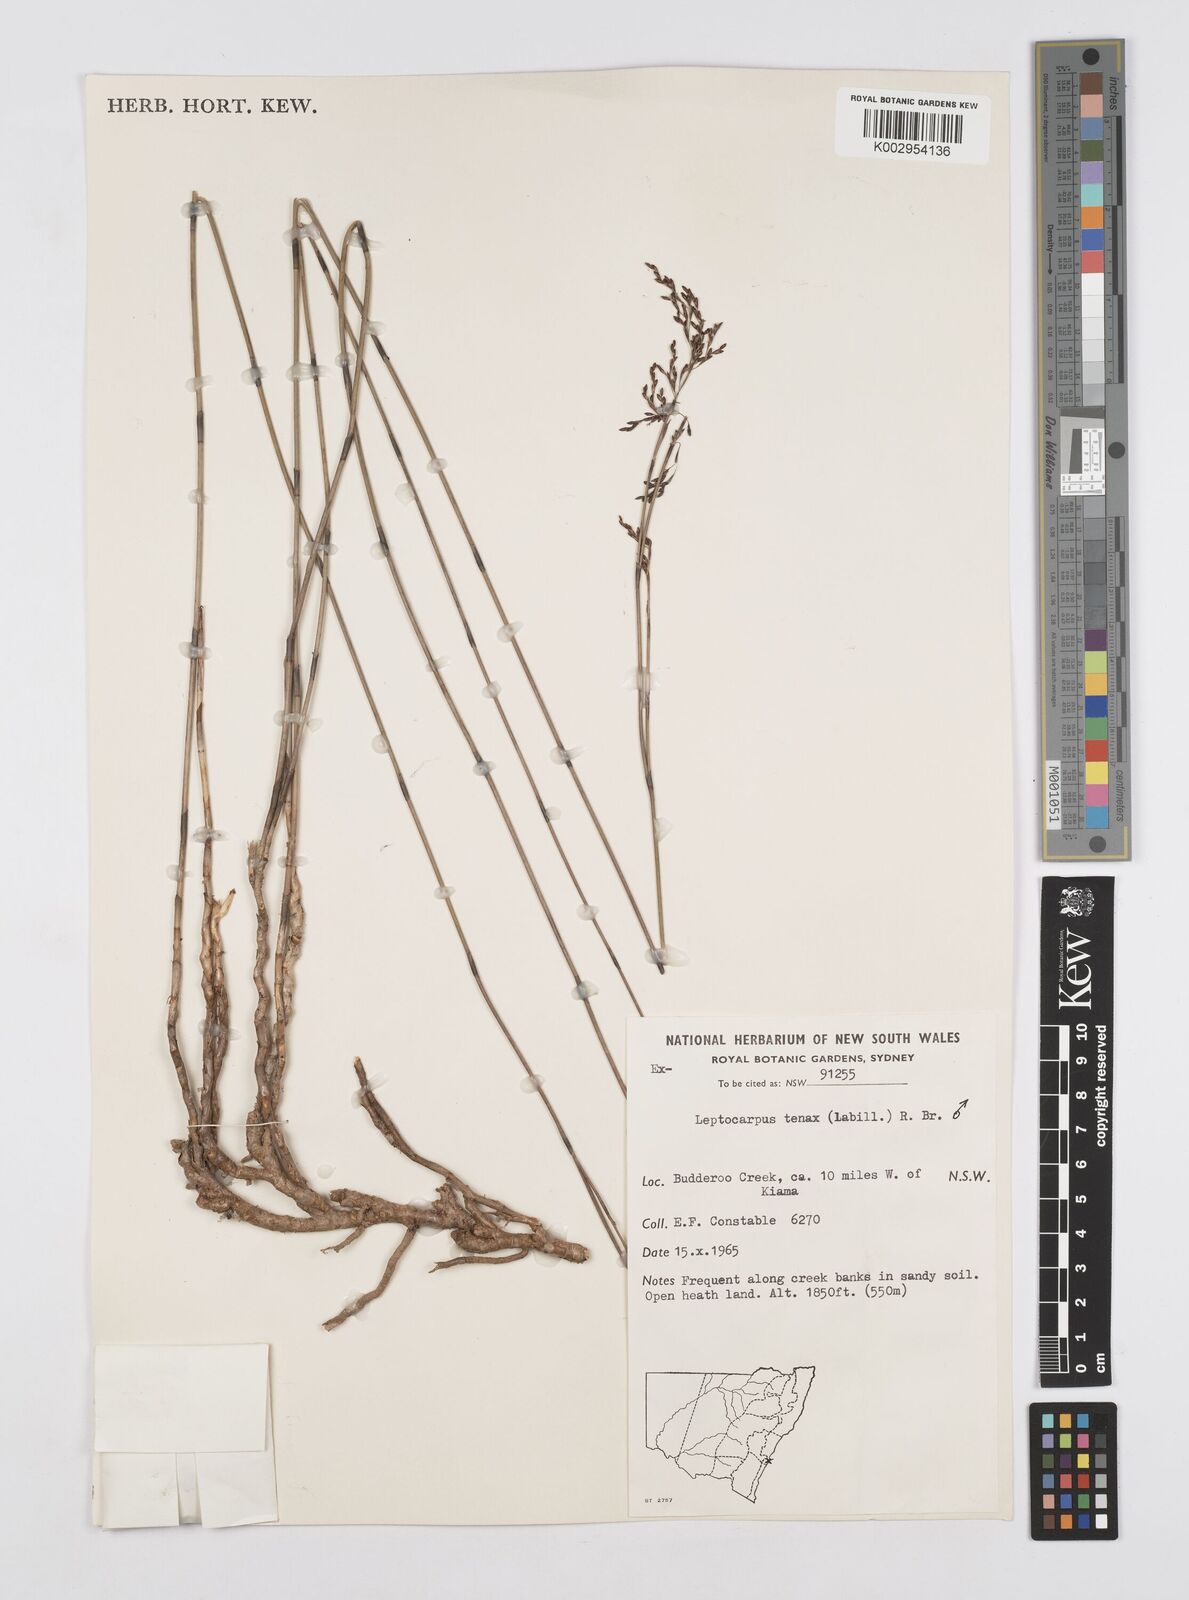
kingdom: Plantae
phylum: Tracheophyta
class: Liliopsida
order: Poales
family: Restionaceae
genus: Leptocarpus
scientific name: Leptocarpus tenax
